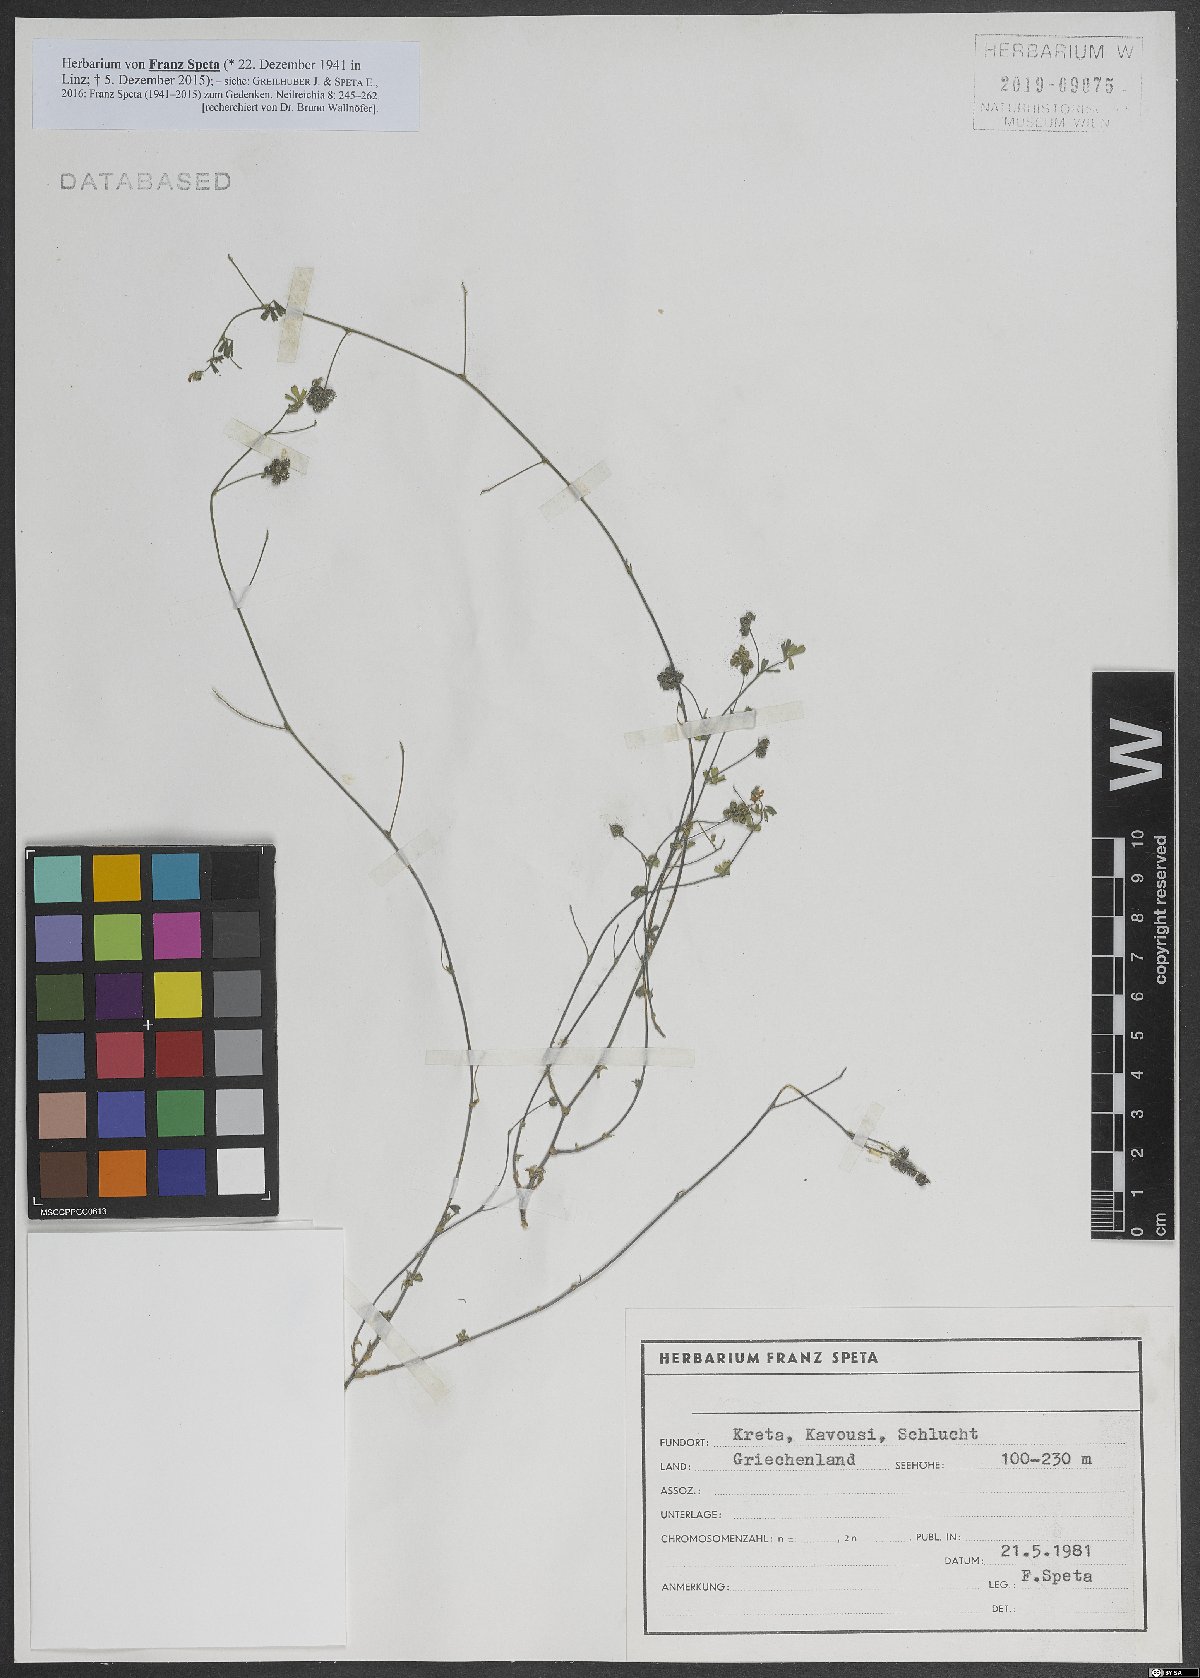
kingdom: Plantae
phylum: Tracheophyta
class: Magnoliopsida
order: Fabales
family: Fabaceae
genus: Medicago
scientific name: Medicago coronata
